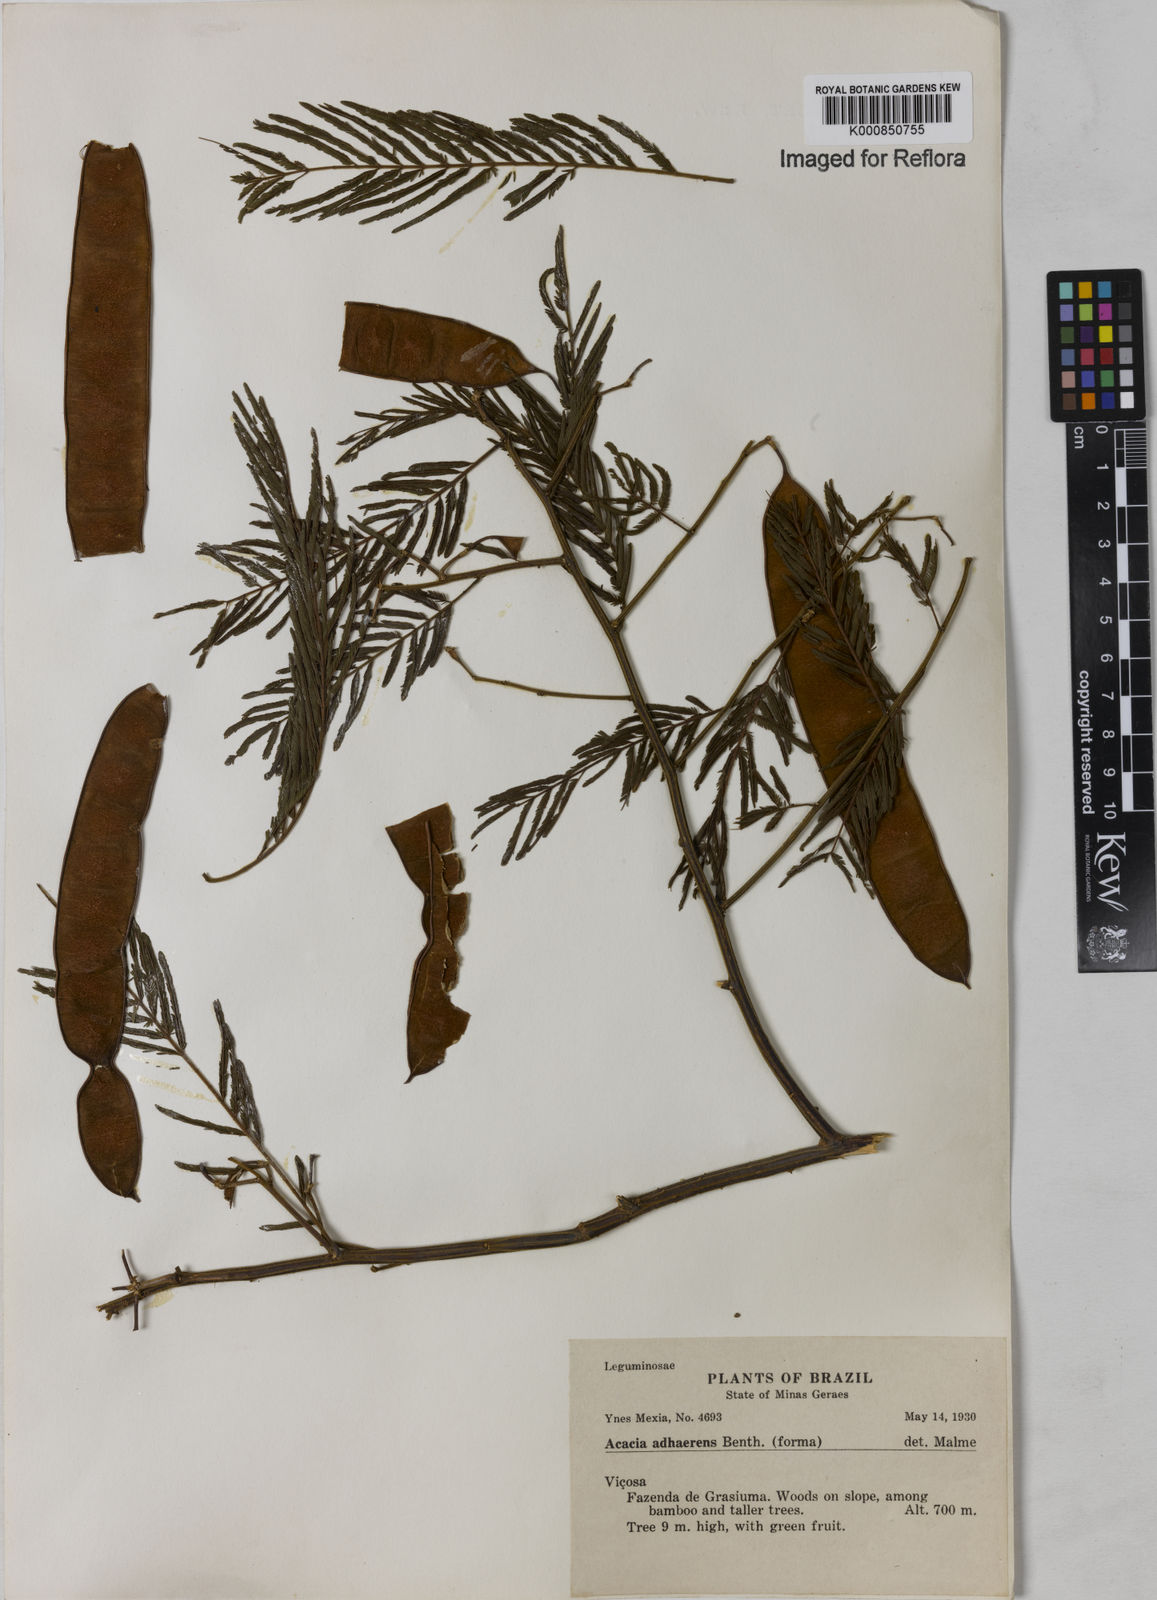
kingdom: Plantae
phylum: Tracheophyta
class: Magnoliopsida
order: Fabales
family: Fabaceae
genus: Senegalia
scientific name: Senegalia martiusiana
